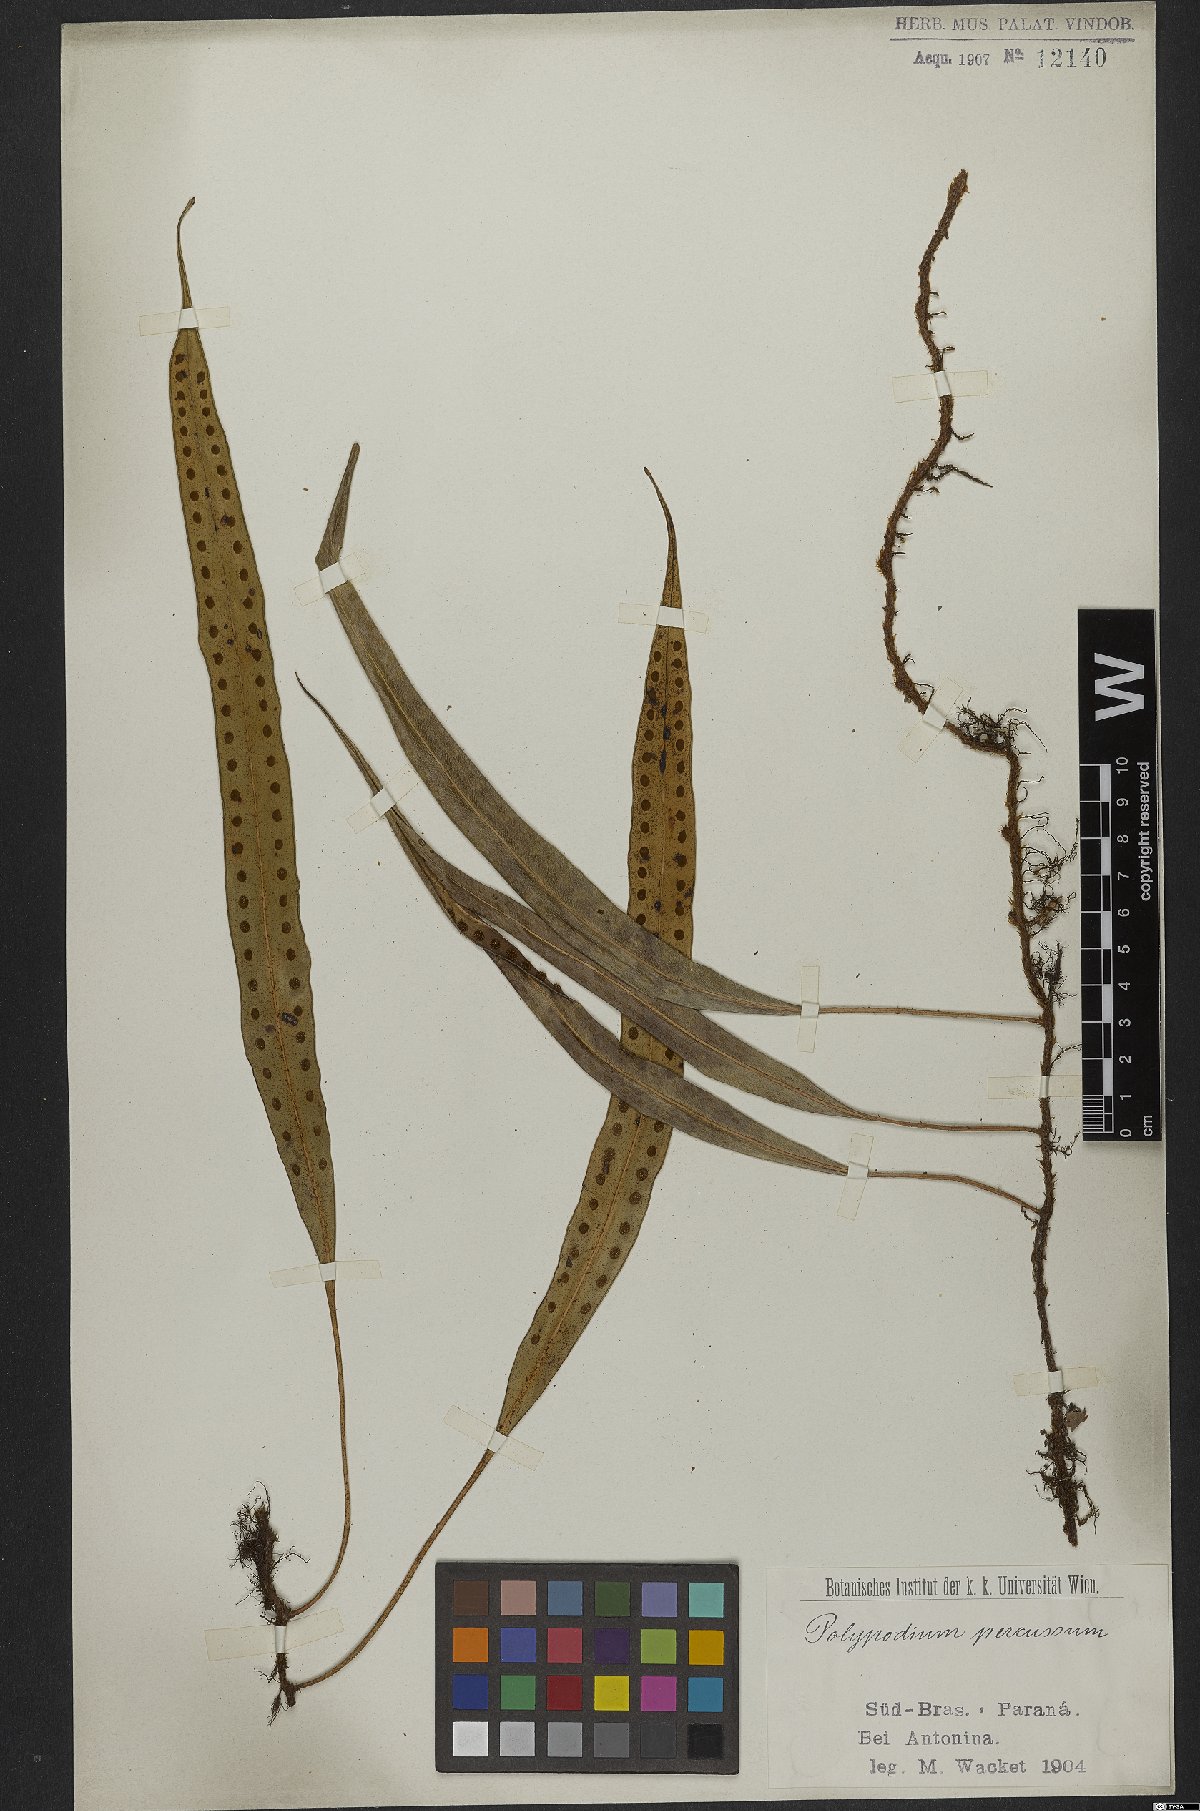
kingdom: Plantae
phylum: Tracheophyta
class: Polypodiopsida
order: Polypodiales
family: Polypodiaceae
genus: Microgramma
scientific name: Microgramma percussa
